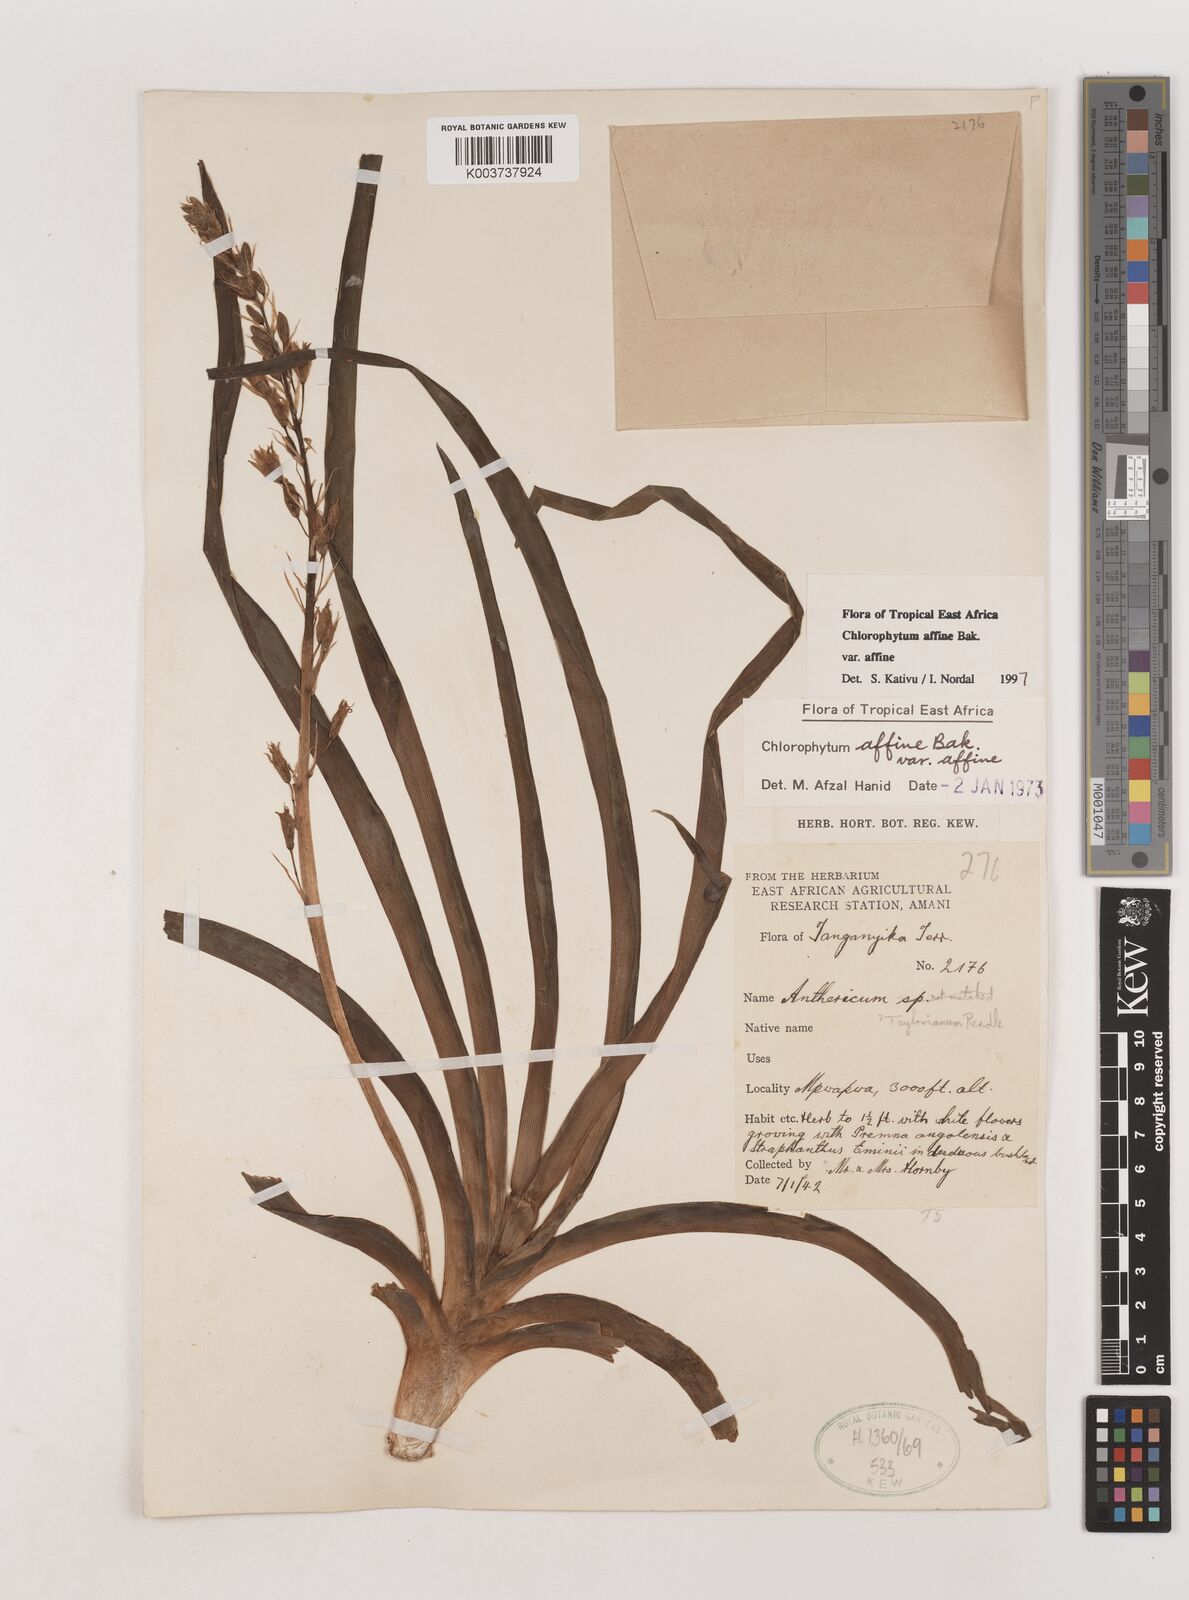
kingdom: Plantae
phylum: Tracheophyta
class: Liliopsida
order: Asparagales
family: Asparagaceae
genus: Chlorophytum
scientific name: Chlorophytum affine
